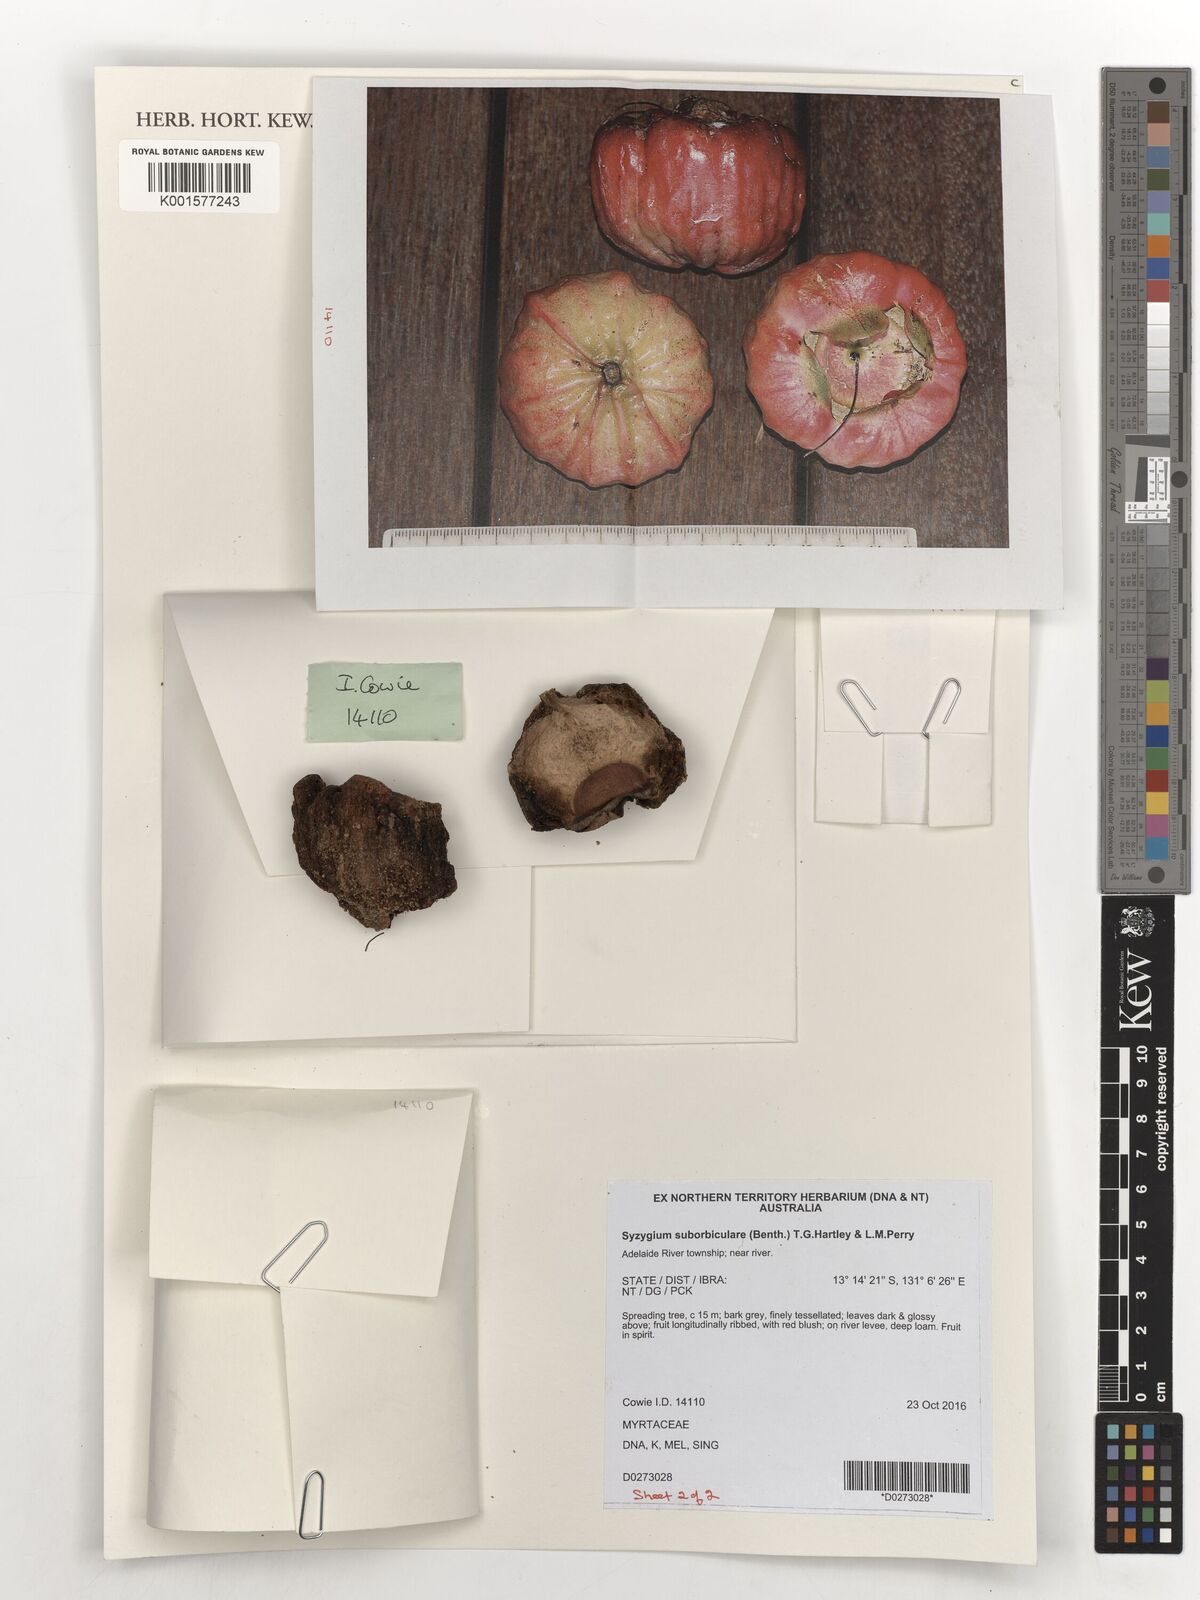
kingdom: Plantae
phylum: Tracheophyta
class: Magnoliopsida
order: Myrtales
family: Myrtaceae
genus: Syzygium
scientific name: Syzygium suborbiculare
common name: Red bush apple
